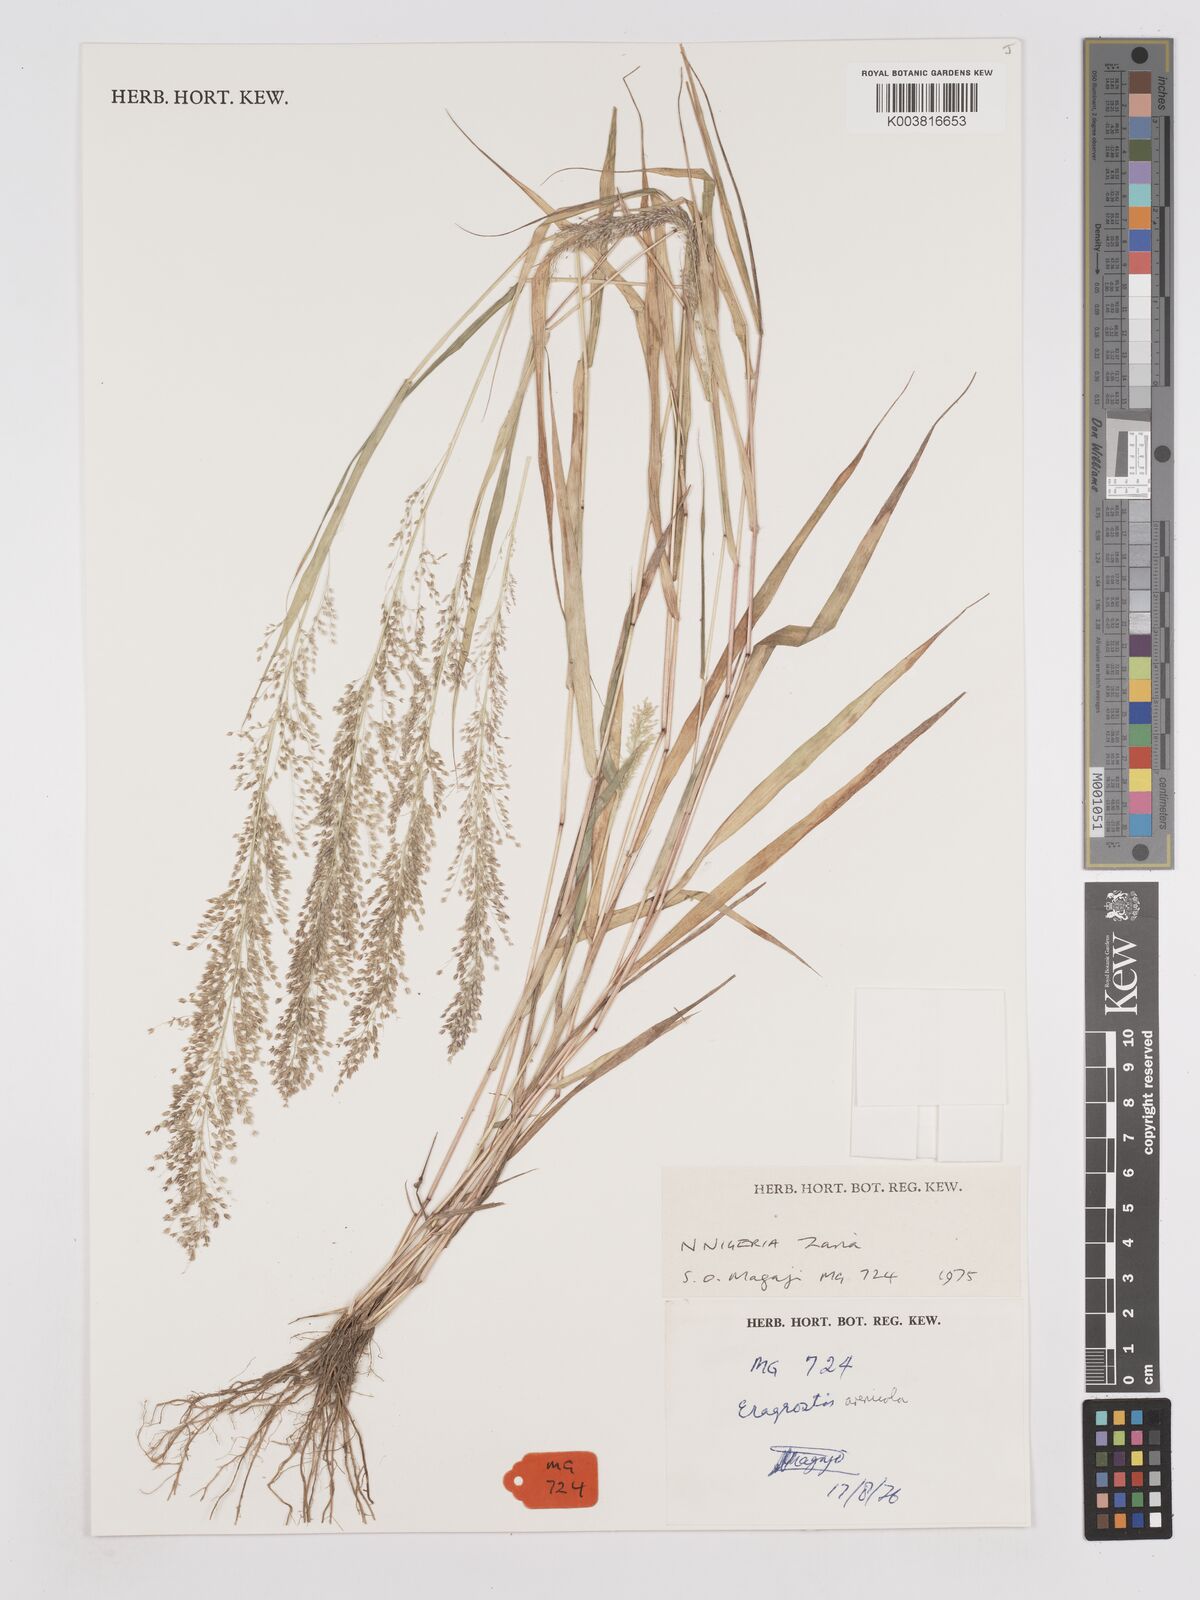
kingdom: Plantae
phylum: Tracheophyta
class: Liliopsida
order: Poales
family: Poaceae
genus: Eragrostis
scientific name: Eragrostis arenicola
